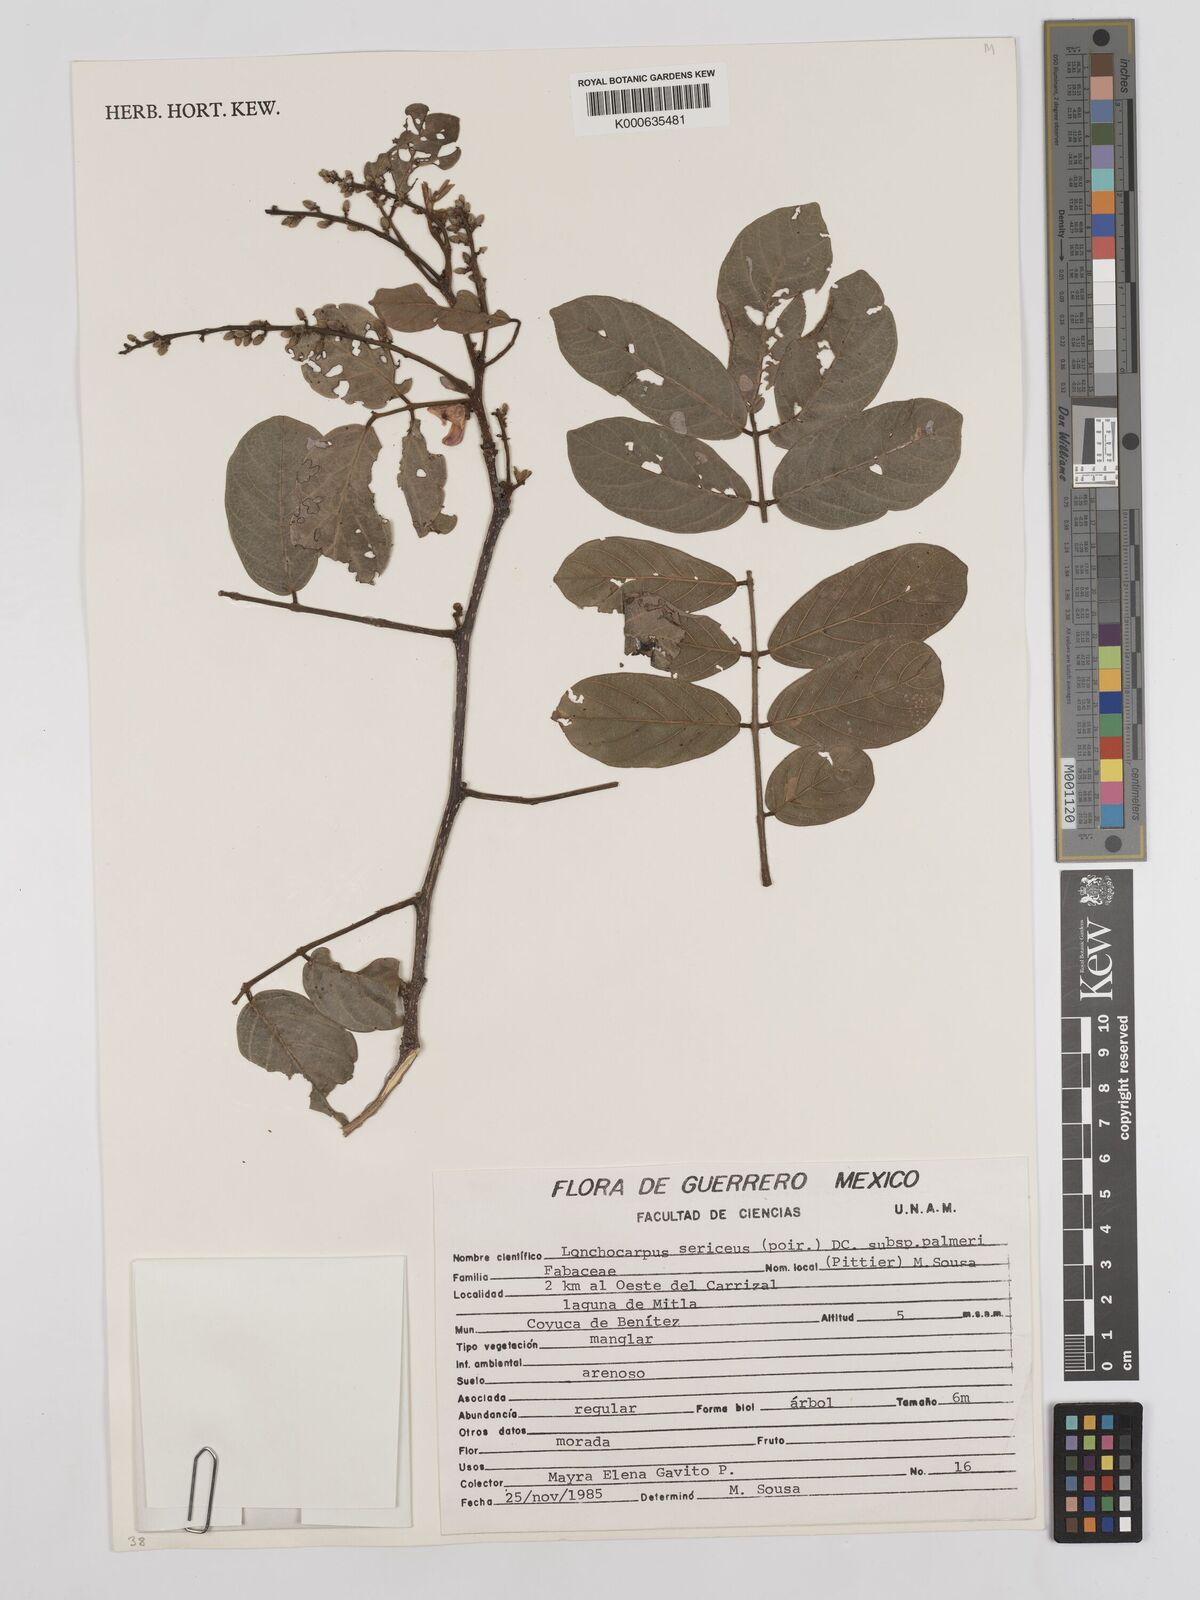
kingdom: Plantae
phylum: Tracheophyta
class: Magnoliopsida
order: Fabales
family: Fabaceae
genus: Lonchocarpus
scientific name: Lonchocarpus palmeri
